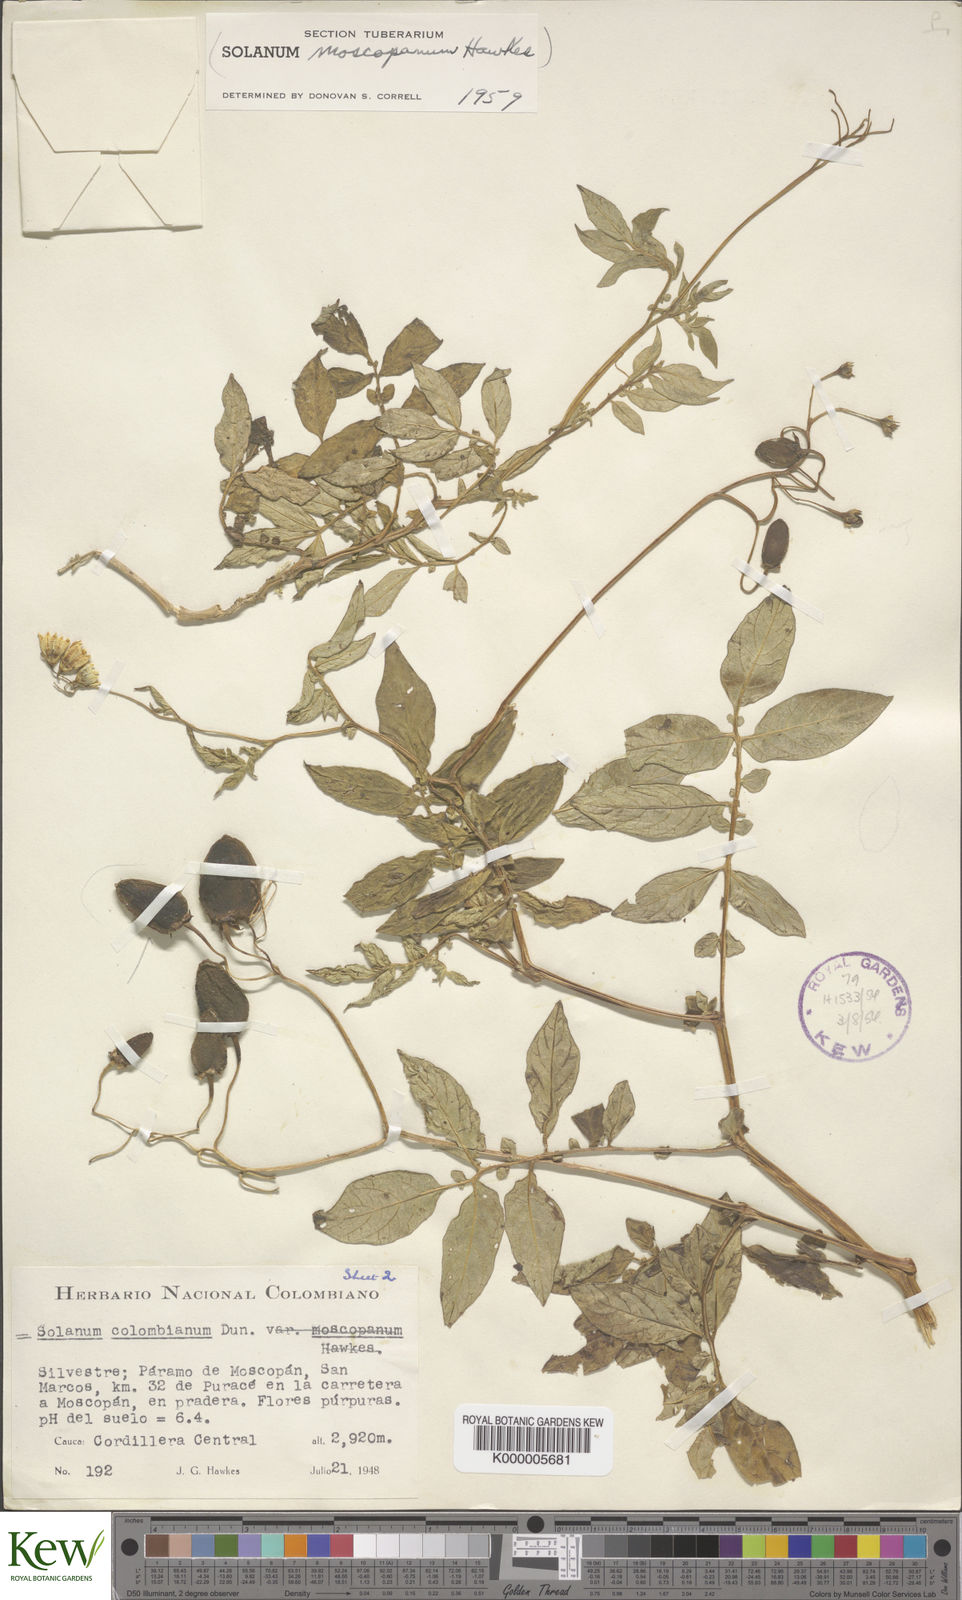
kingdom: Plantae
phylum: Tracheophyta
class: Magnoliopsida
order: Solanales
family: Solanaceae
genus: Solanum
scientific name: Solanum colombianum
